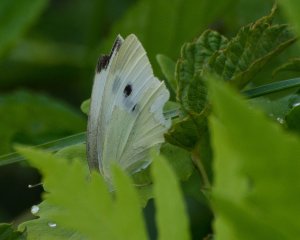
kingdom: Animalia
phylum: Arthropoda
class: Insecta
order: Lepidoptera
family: Pieridae
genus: Pieris
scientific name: Pieris rapae
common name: Cabbage White
